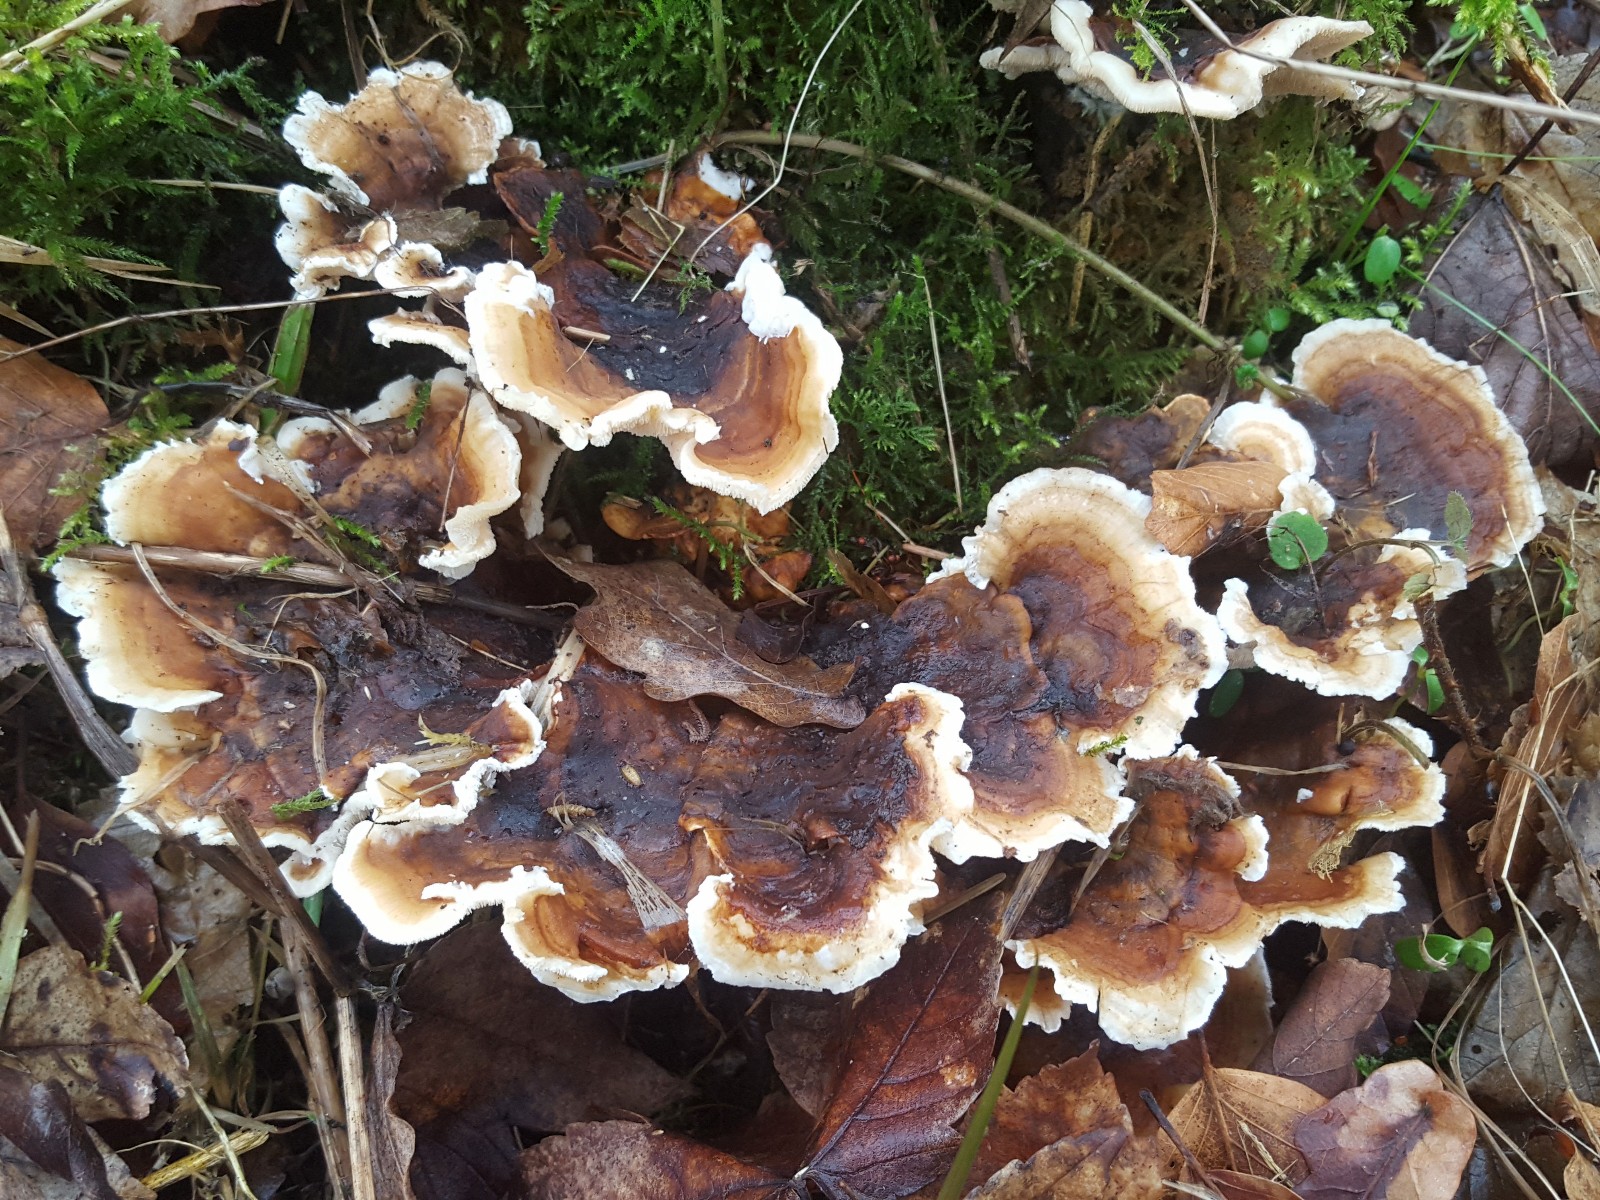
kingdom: Fungi
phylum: Basidiomycota
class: Agaricomycetes
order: Polyporales
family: Polyporaceae
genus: Trametes
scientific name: Trametes versicolor
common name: broget læderporesvamp
